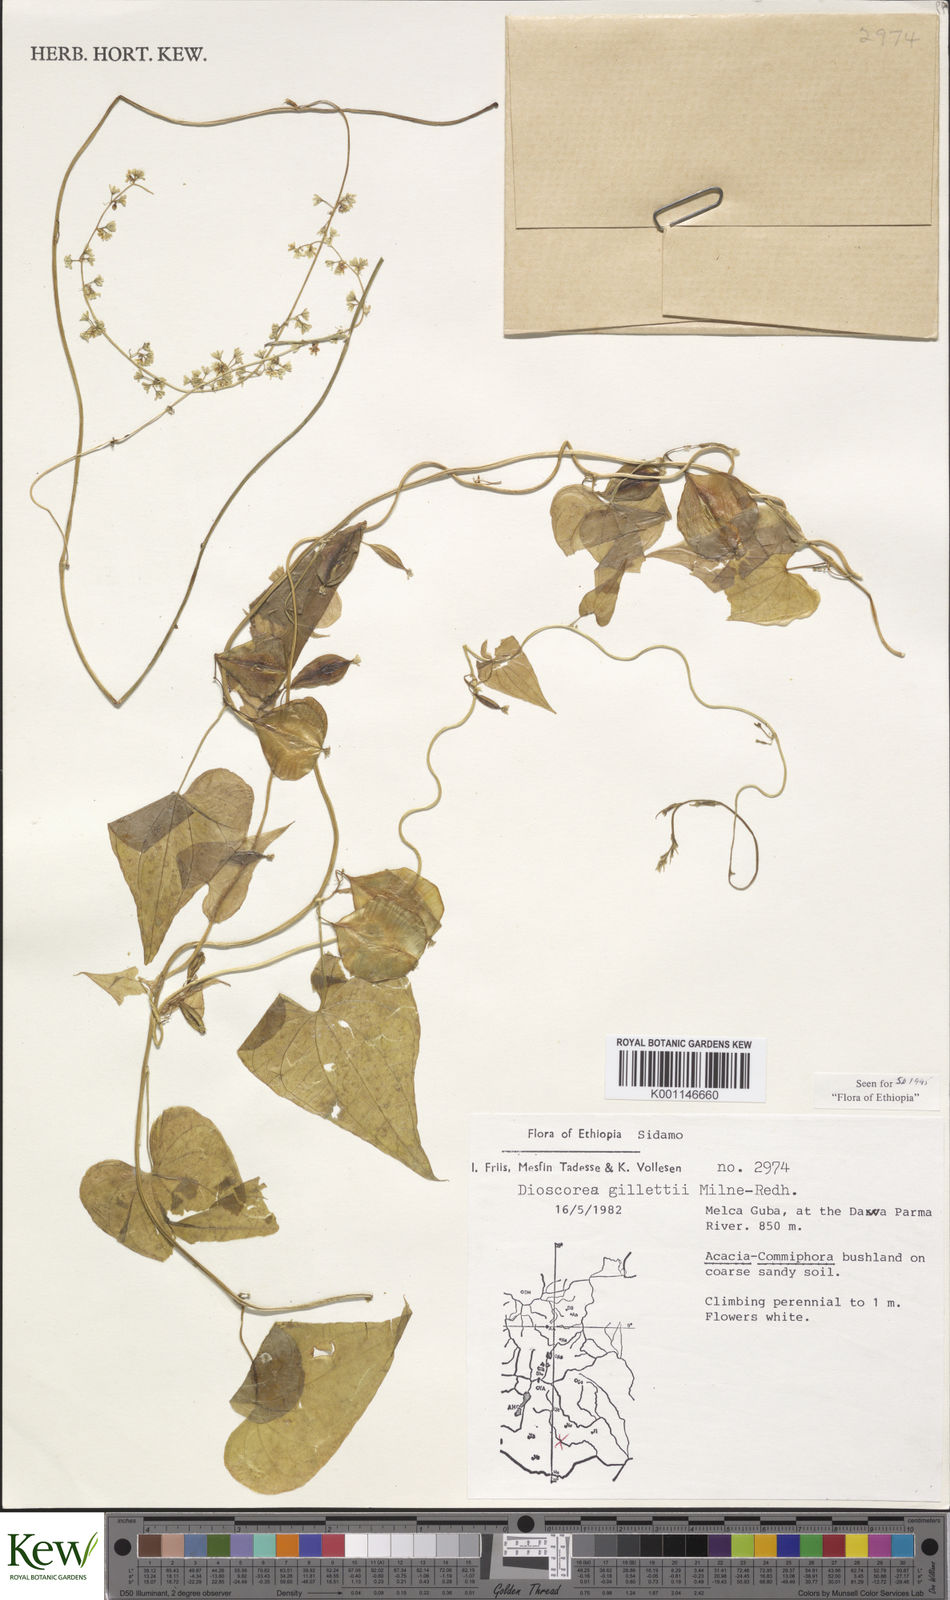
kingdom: Plantae
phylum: Tracheophyta
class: Liliopsida
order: Dioscoreales
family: Dioscoreaceae
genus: Dioscorea
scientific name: Dioscorea gillettii
